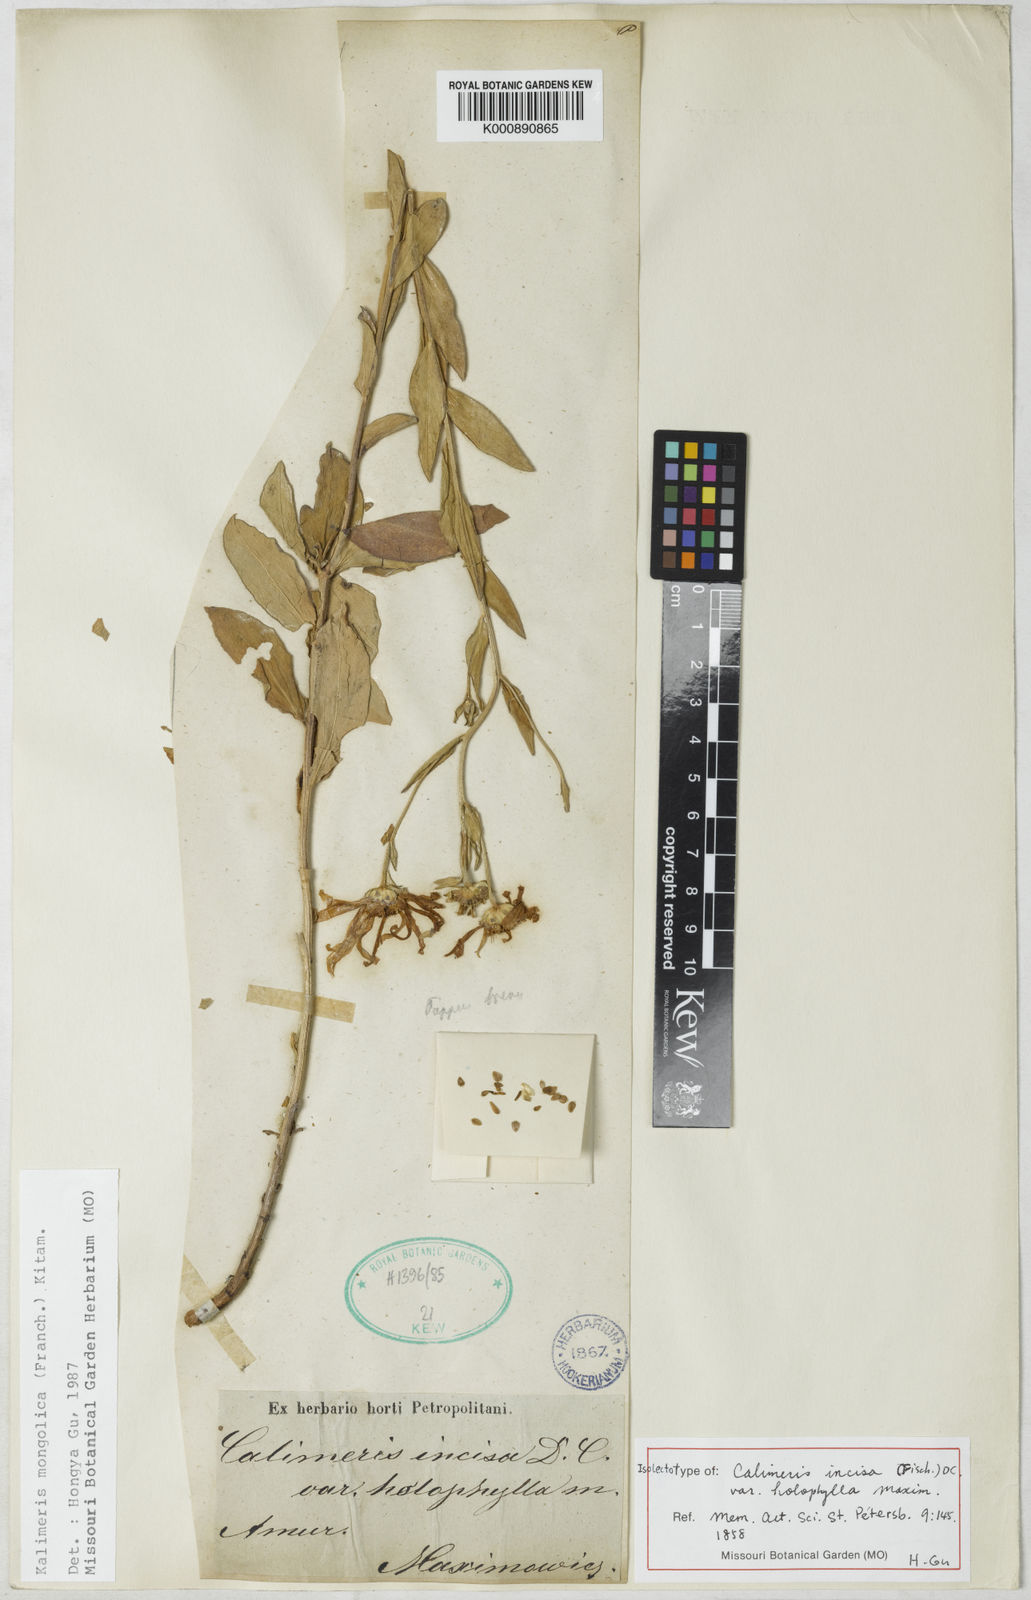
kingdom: Plantae
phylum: Tracheophyta
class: Magnoliopsida
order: Asterales
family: Asteraceae
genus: Aster
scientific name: Aster mongolicus
